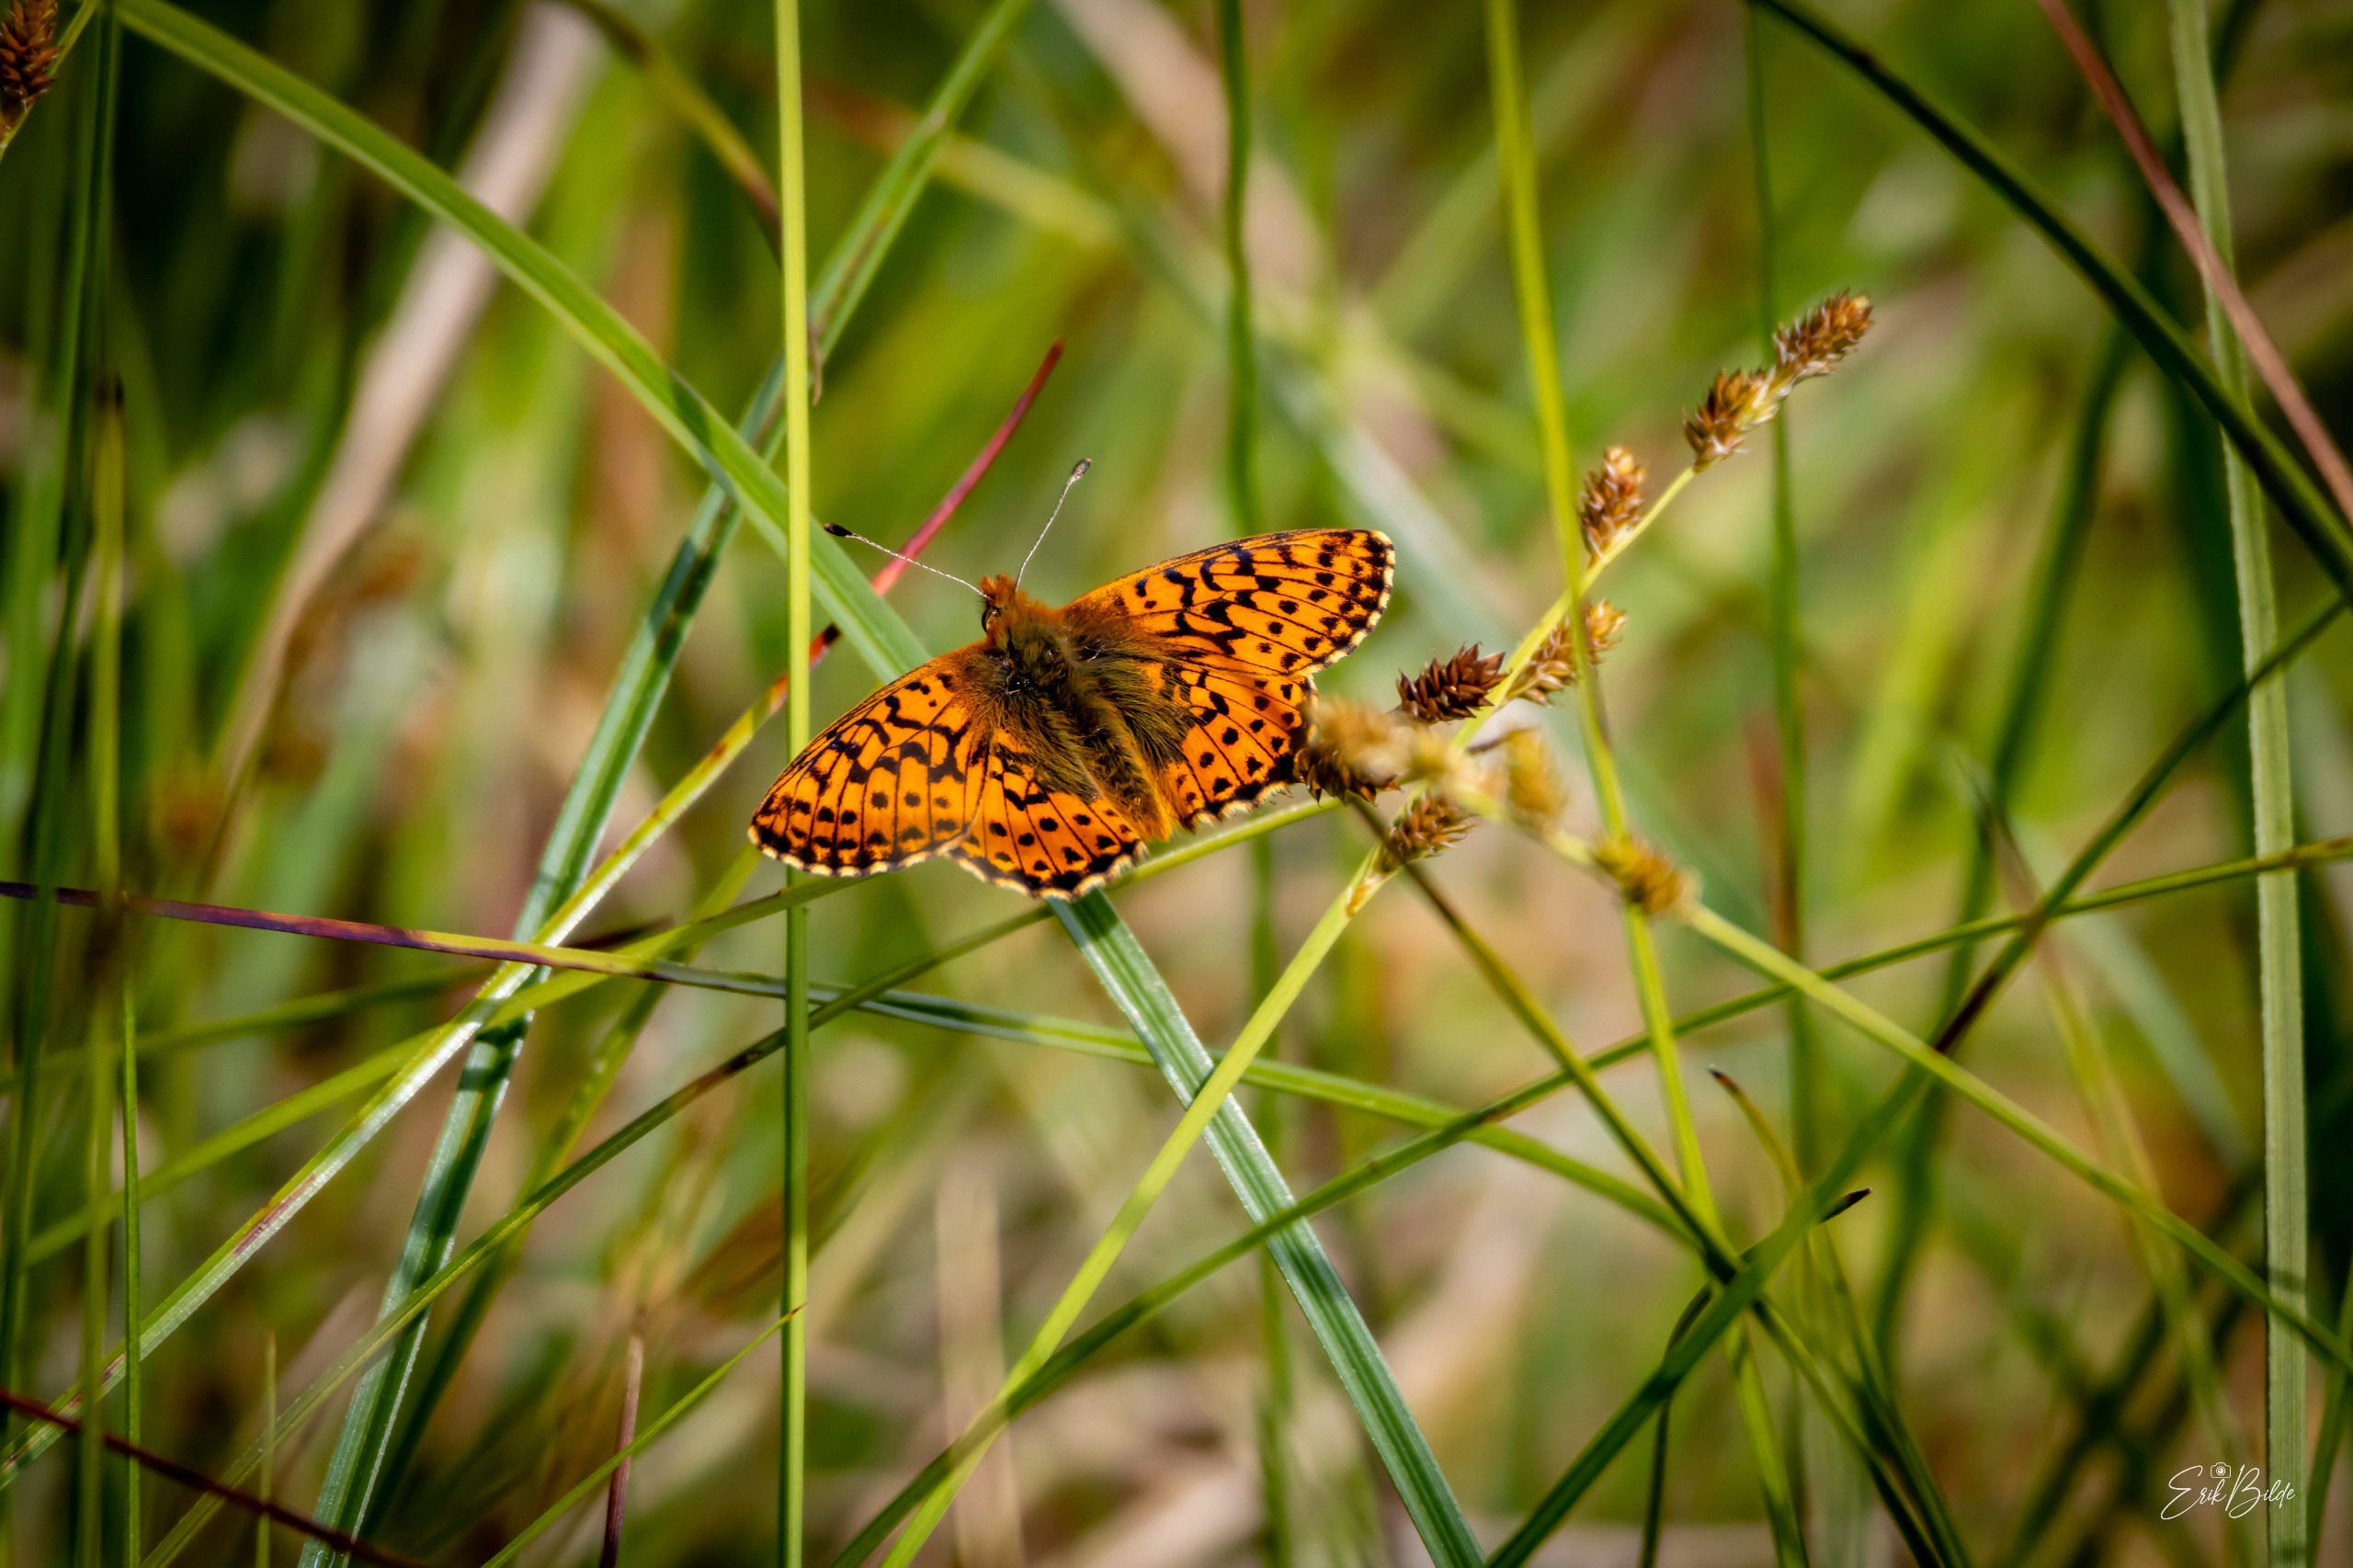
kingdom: Animalia
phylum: Arthropoda
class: Insecta
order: Lepidoptera
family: Nymphalidae
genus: Boloria
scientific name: Boloria aquilonaris
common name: Moseperlemorsommerfugl
